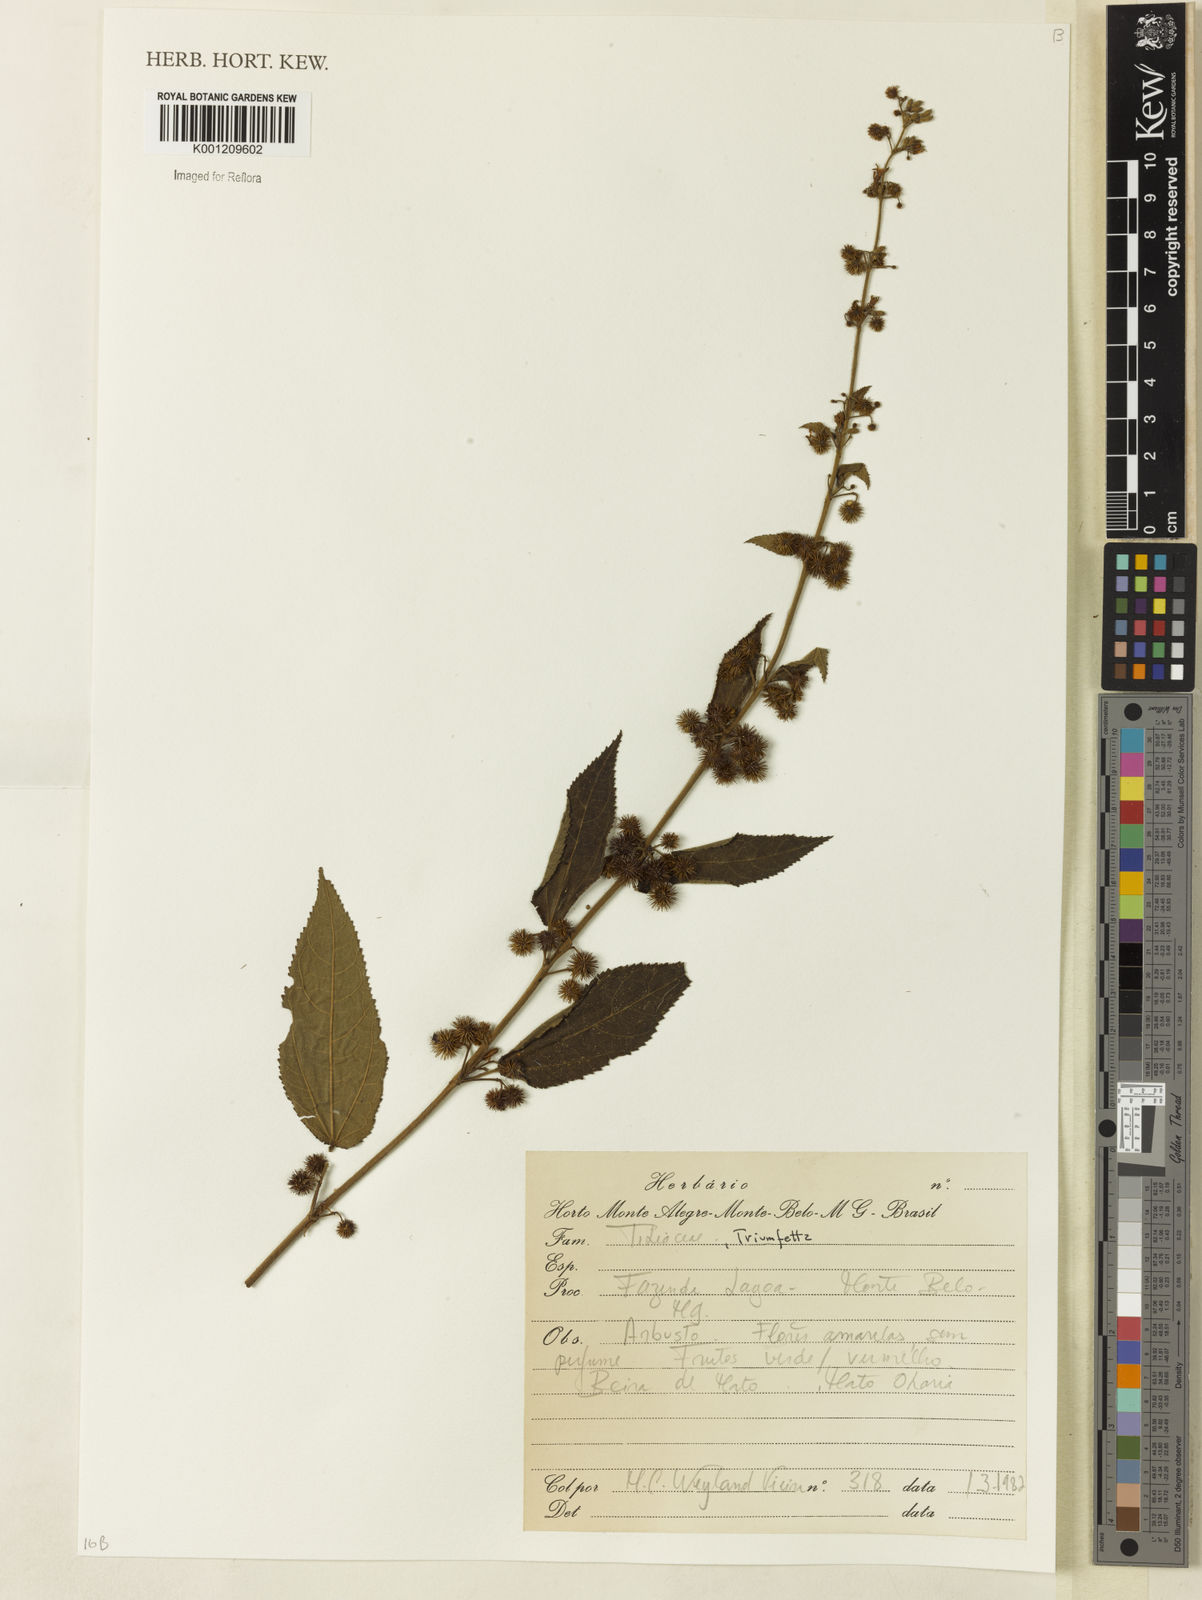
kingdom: Plantae
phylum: Tracheophyta
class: Magnoliopsida
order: Malvales
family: Malvaceae
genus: Triumfetta
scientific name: Triumfetta
